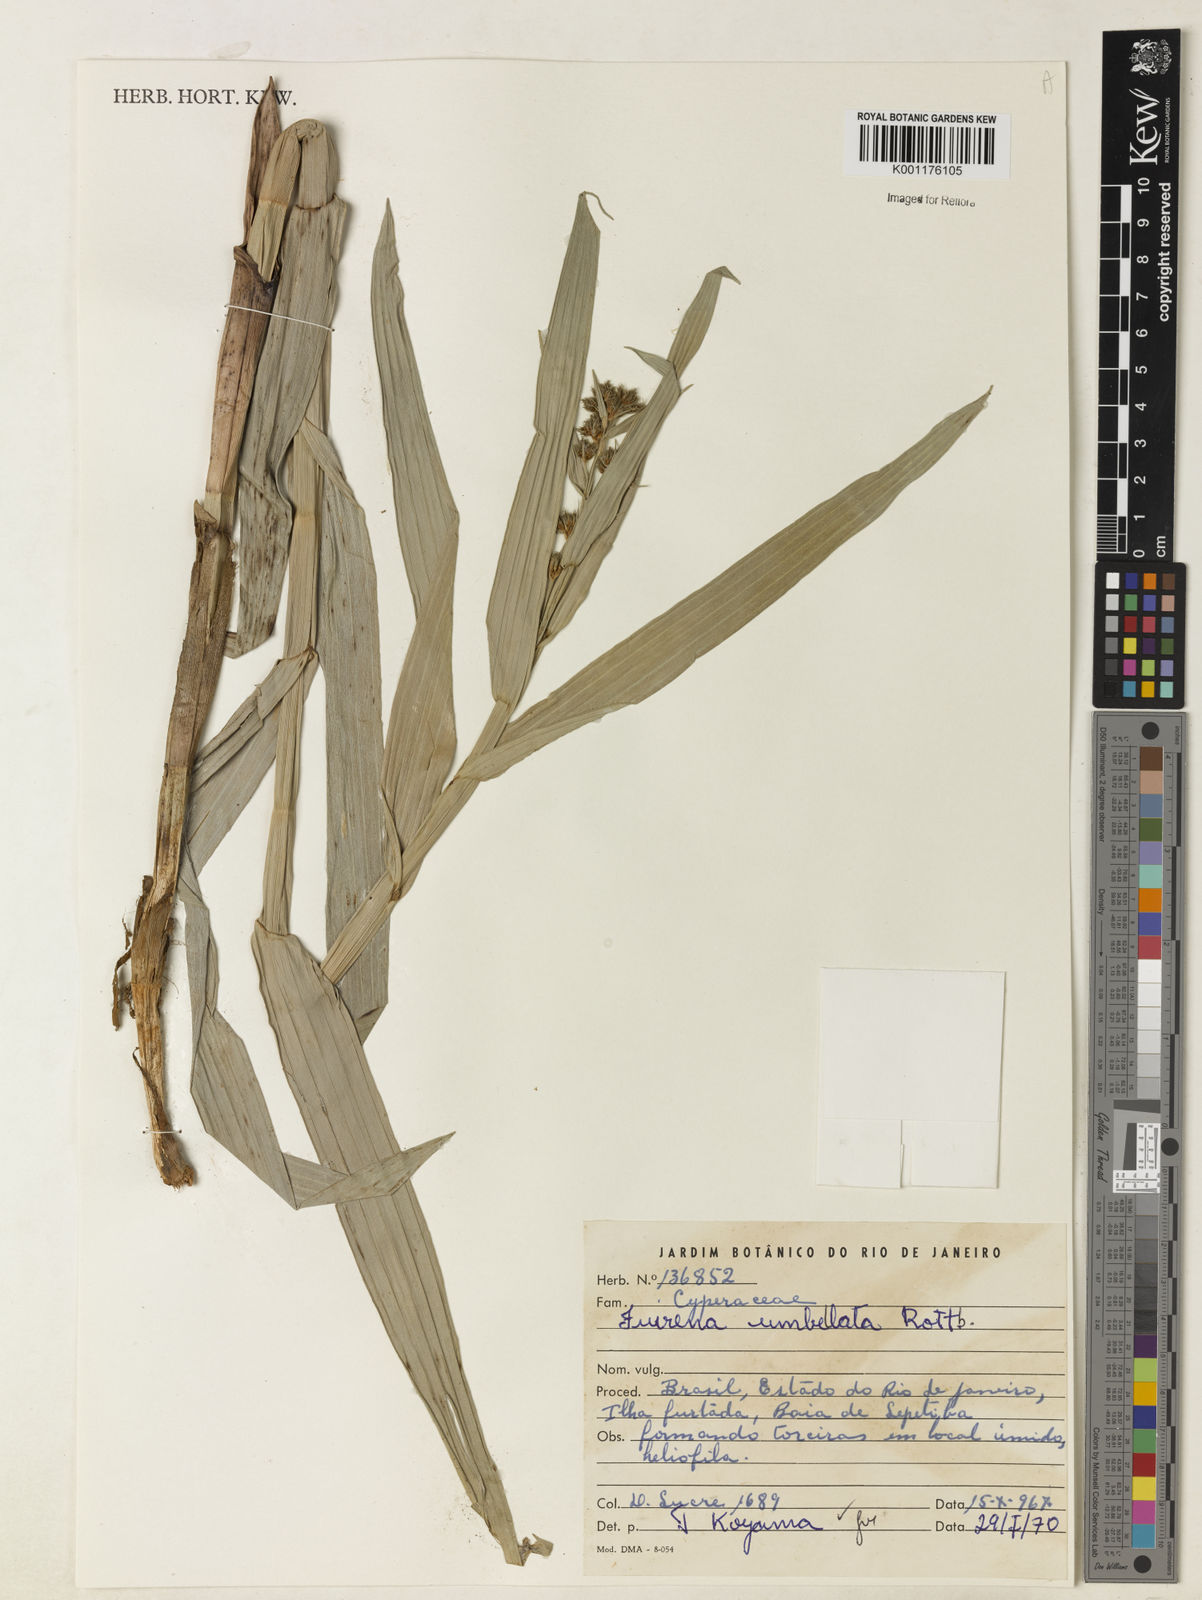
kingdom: Plantae
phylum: Tracheophyta
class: Liliopsida
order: Poales
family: Cyperaceae
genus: Fuirena
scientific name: Fuirena umbellata
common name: Yefen
